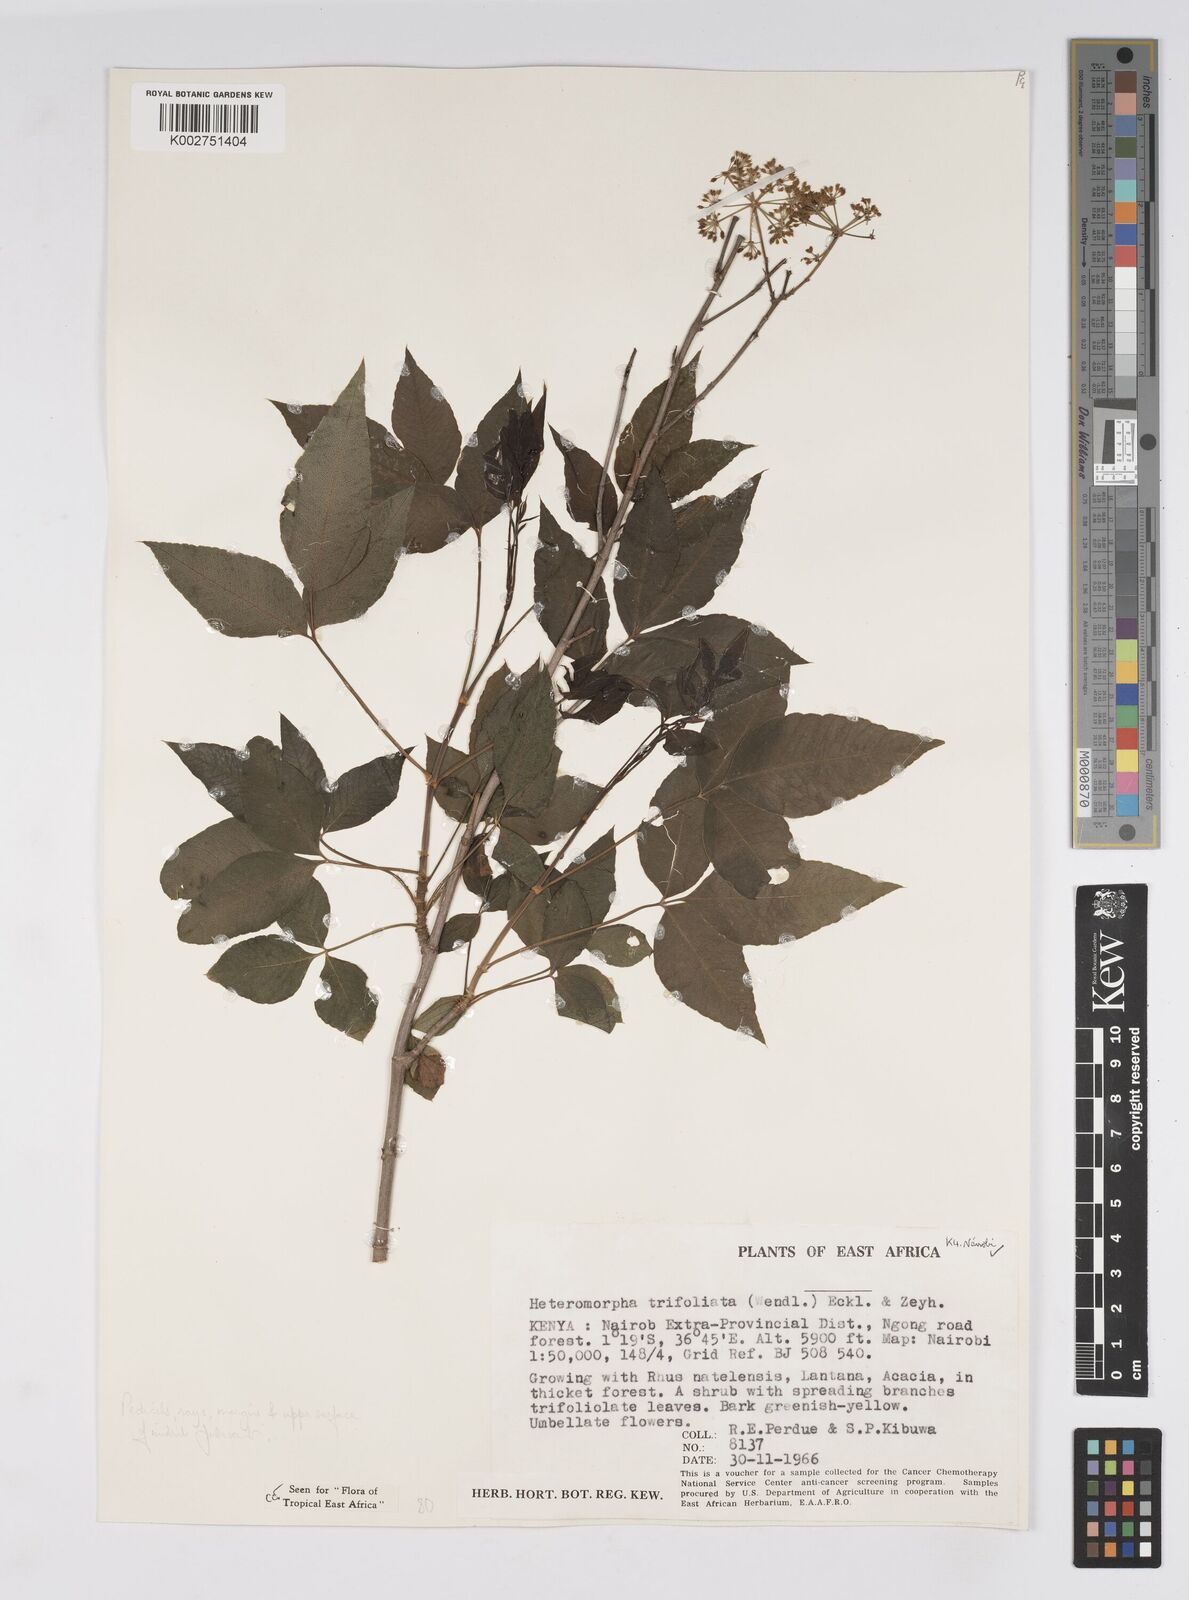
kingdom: Plantae
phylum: Tracheophyta
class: Magnoliopsida
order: Apiales
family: Apiaceae
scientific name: Apiaceae
